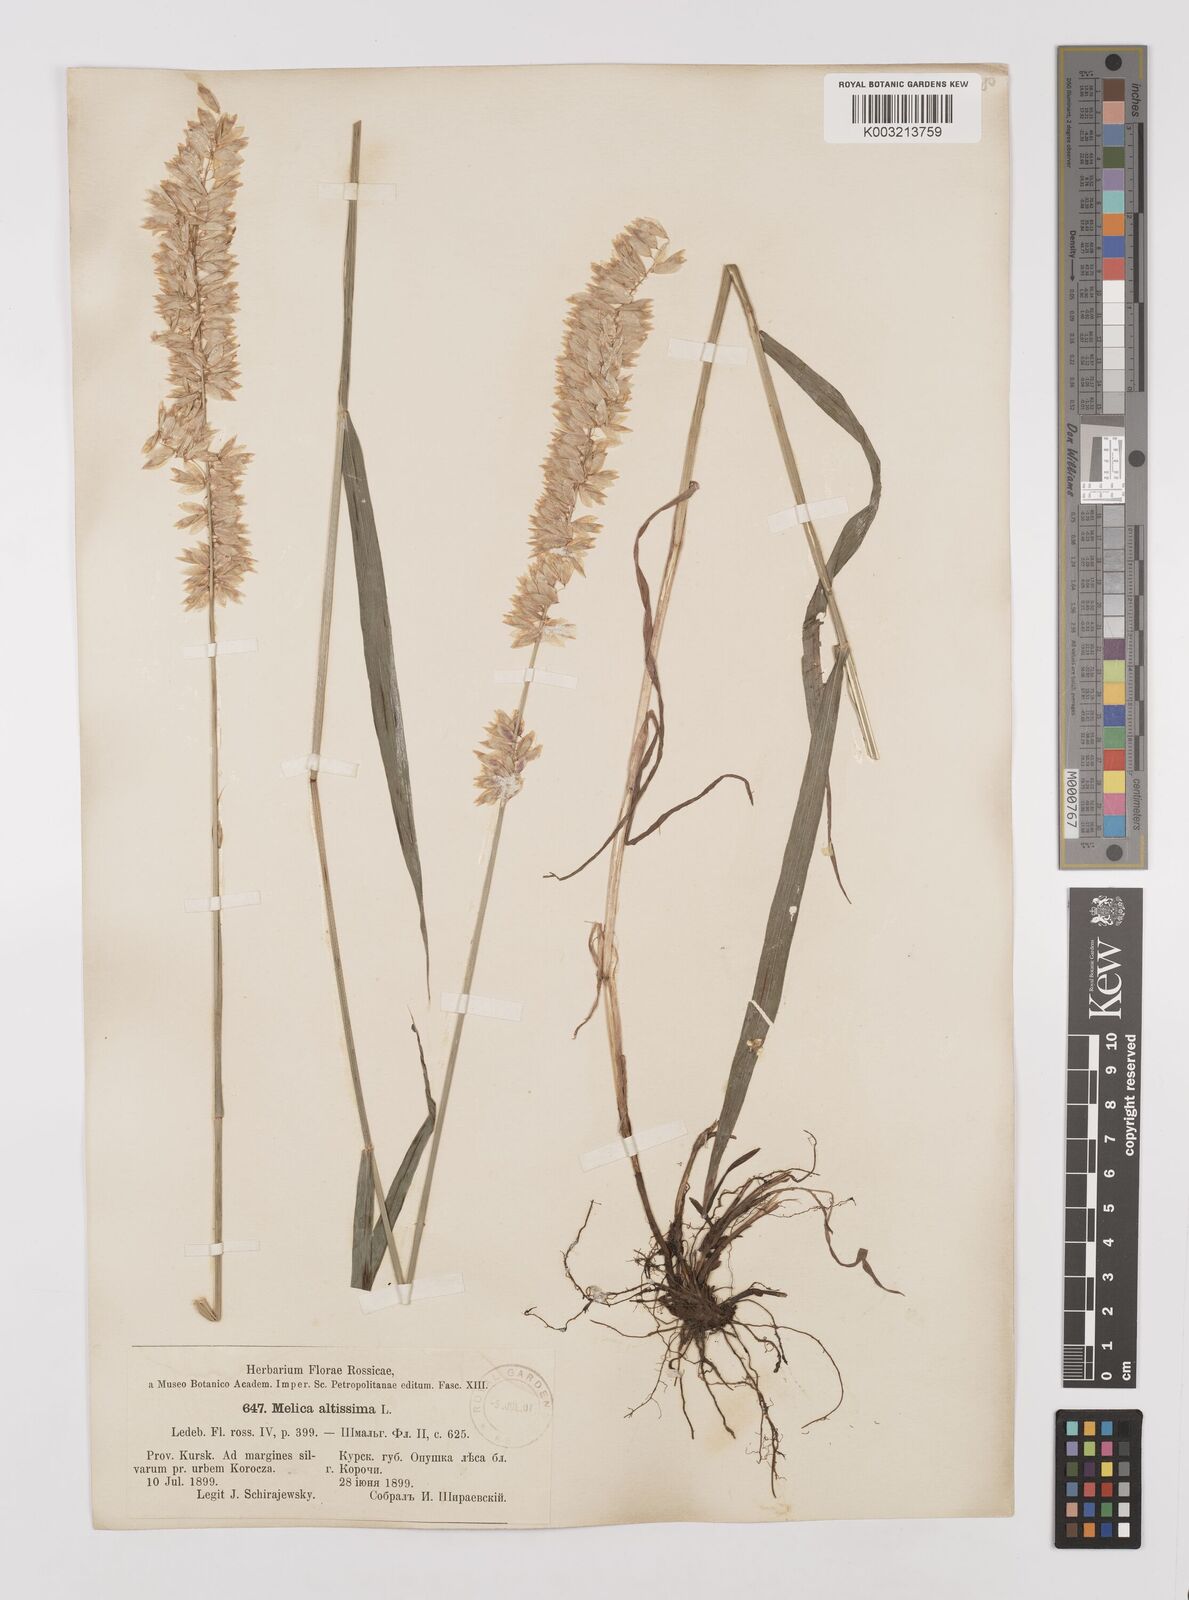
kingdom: Plantae
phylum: Tracheophyta
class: Liliopsida
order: Poales
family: Poaceae
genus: Melica
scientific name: Melica
